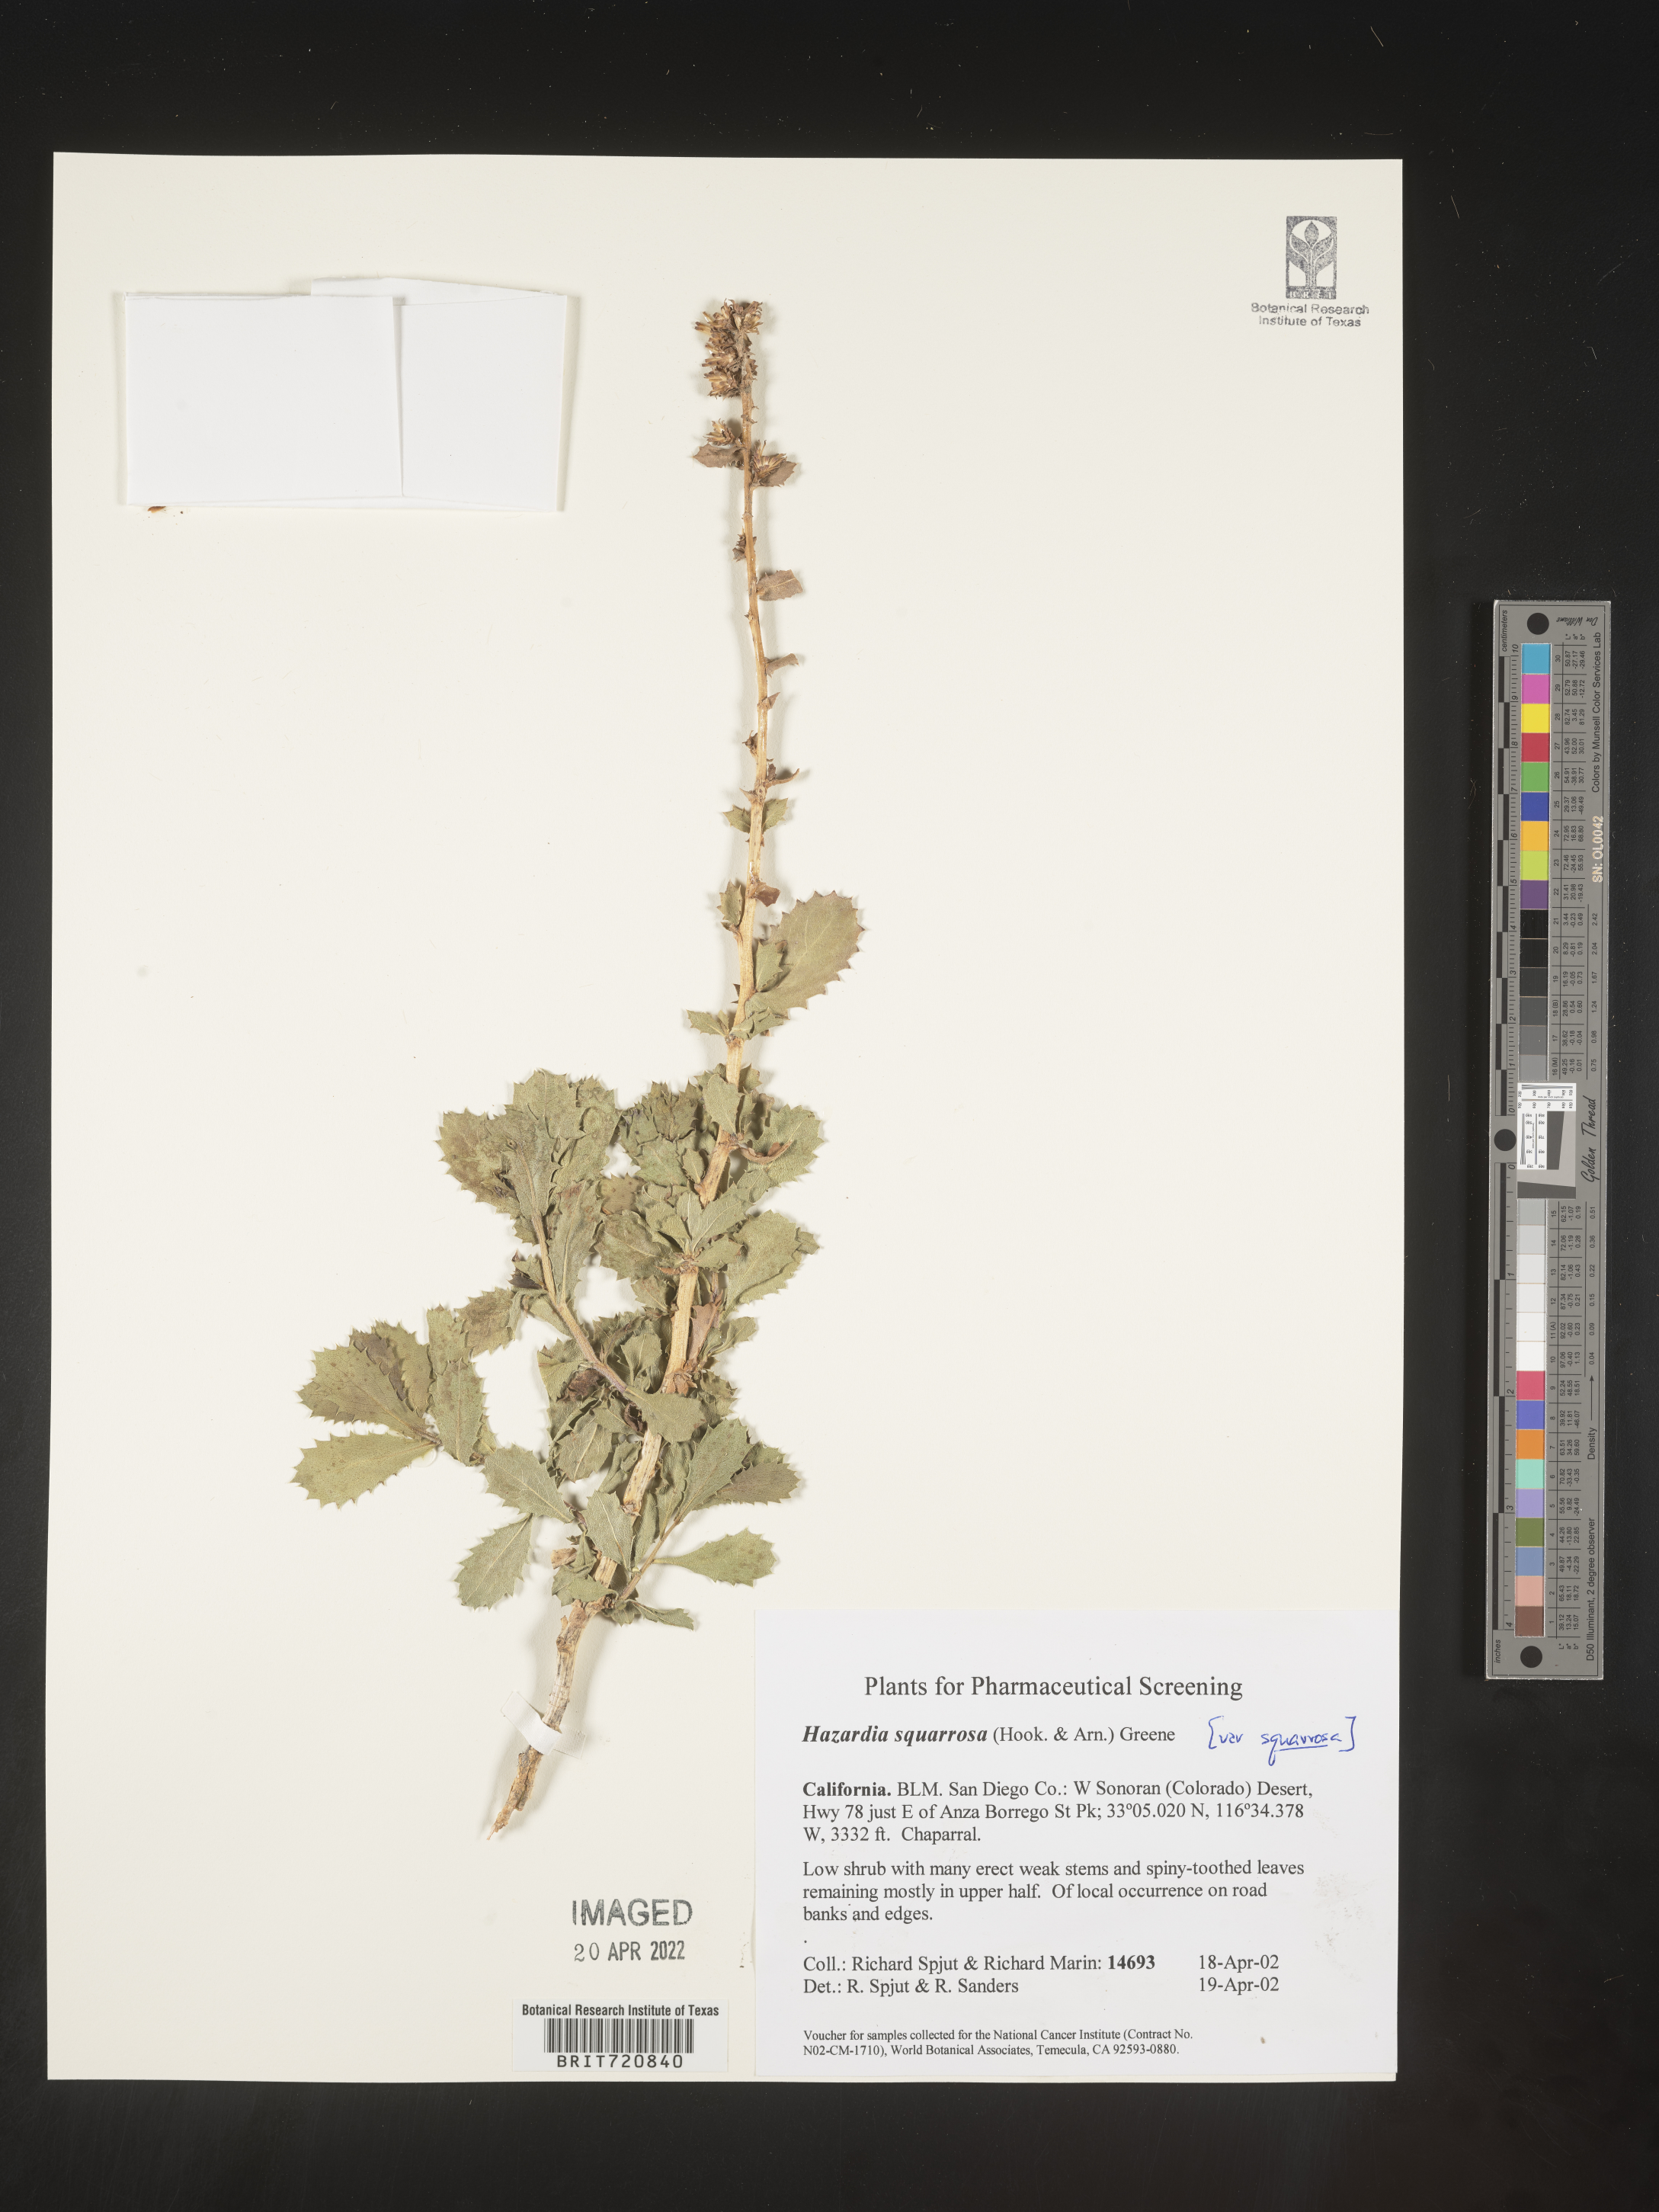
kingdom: Plantae
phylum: Tracheophyta
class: Magnoliopsida
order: Asterales
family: Asteraceae
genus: Hazardia
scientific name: Hazardia squarrosa
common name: Saw-tooth goldenbush
